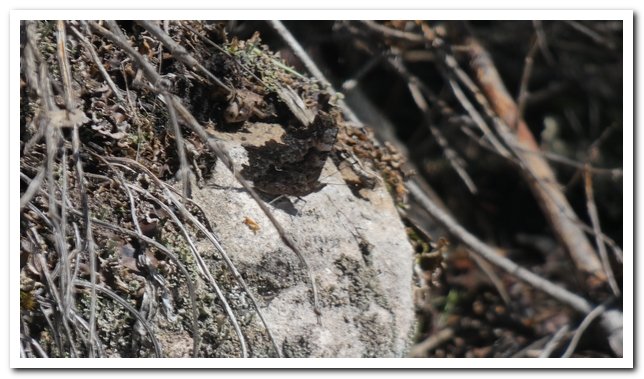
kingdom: Animalia
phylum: Arthropoda
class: Insecta
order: Lepidoptera
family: Nymphalidae
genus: Polygonia
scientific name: Polygonia faunus
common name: Green Comma
